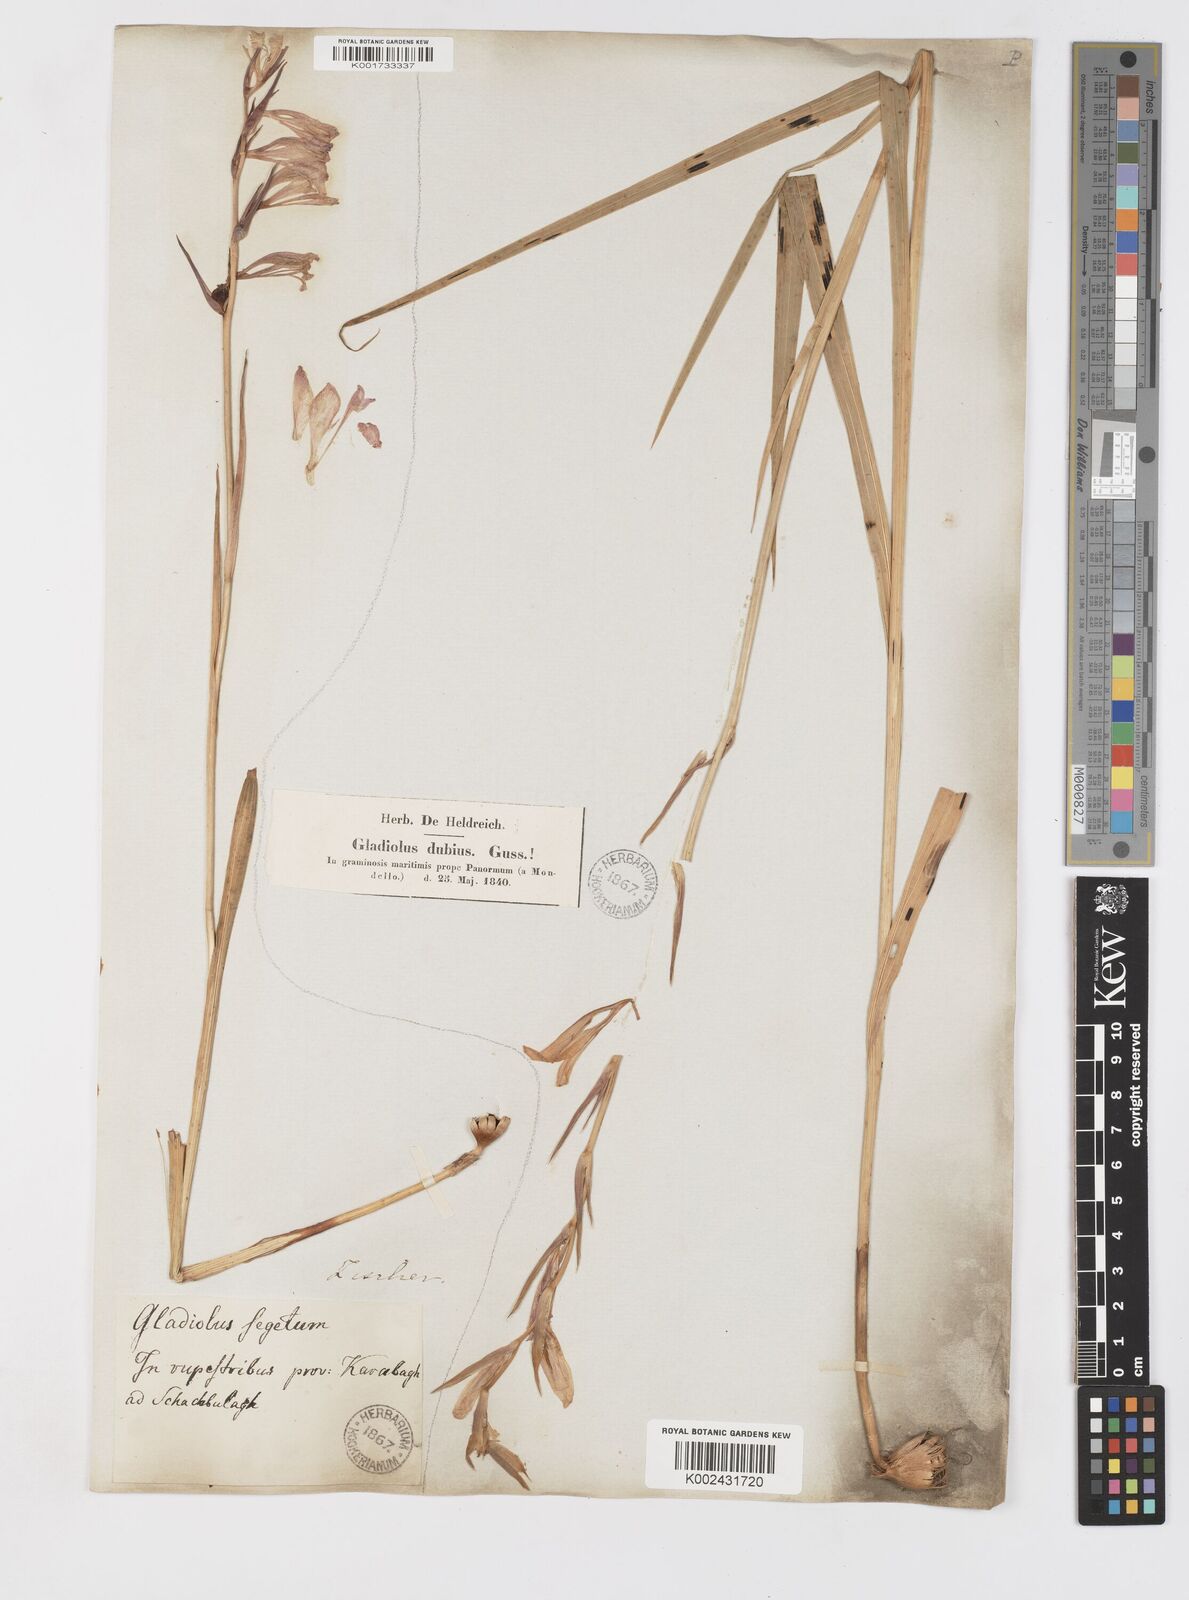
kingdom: Plantae
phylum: Tracheophyta
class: Liliopsida
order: Asparagales
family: Iridaceae
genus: Gladiolus
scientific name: Gladiolus italicus
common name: Field gladiolus
